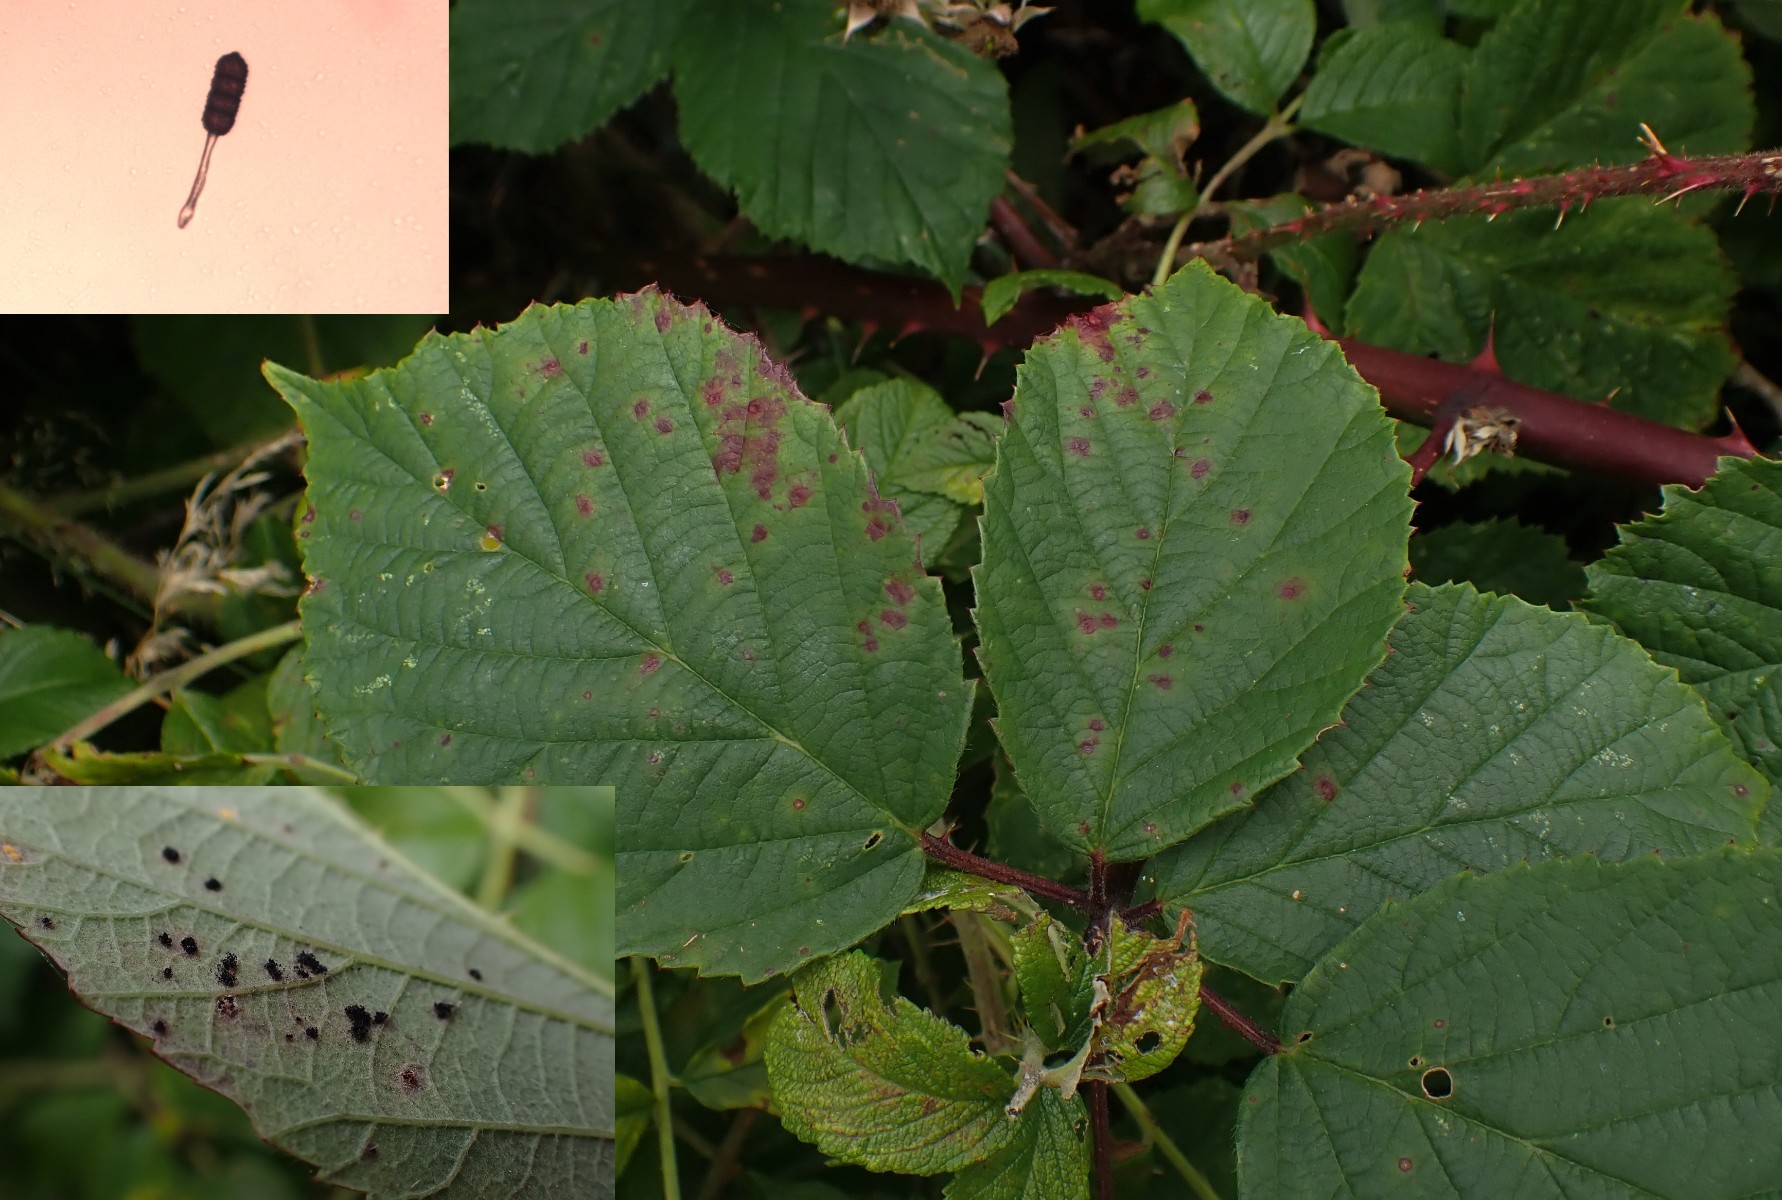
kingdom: Fungi
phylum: Basidiomycota
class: Pucciniomycetes
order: Pucciniales
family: Phragmidiaceae
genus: Phragmidium
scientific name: Phragmidium violaceum
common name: violet flercellerust
